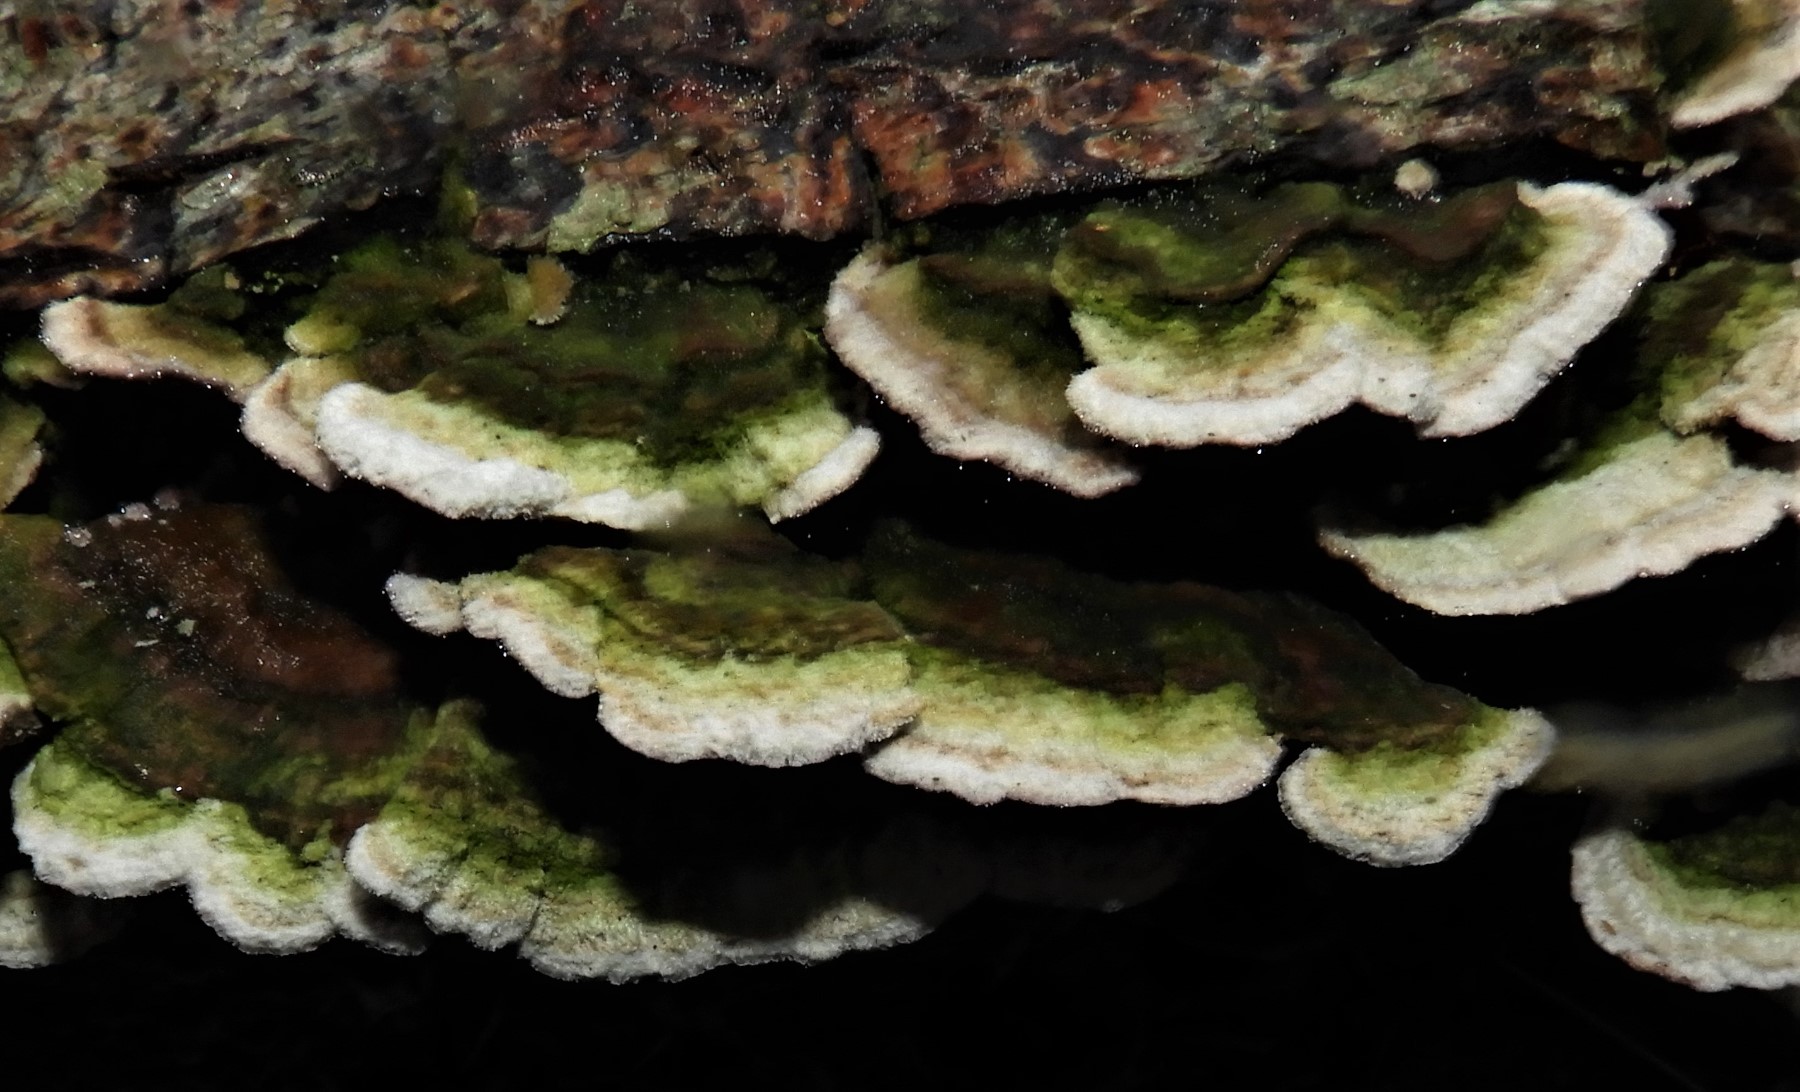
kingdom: Fungi
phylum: Basidiomycota
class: Agaricomycetes
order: Hymenochaetales
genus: Trichaptum
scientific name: Trichaptum abietinum
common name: almindelig violporesvamp
